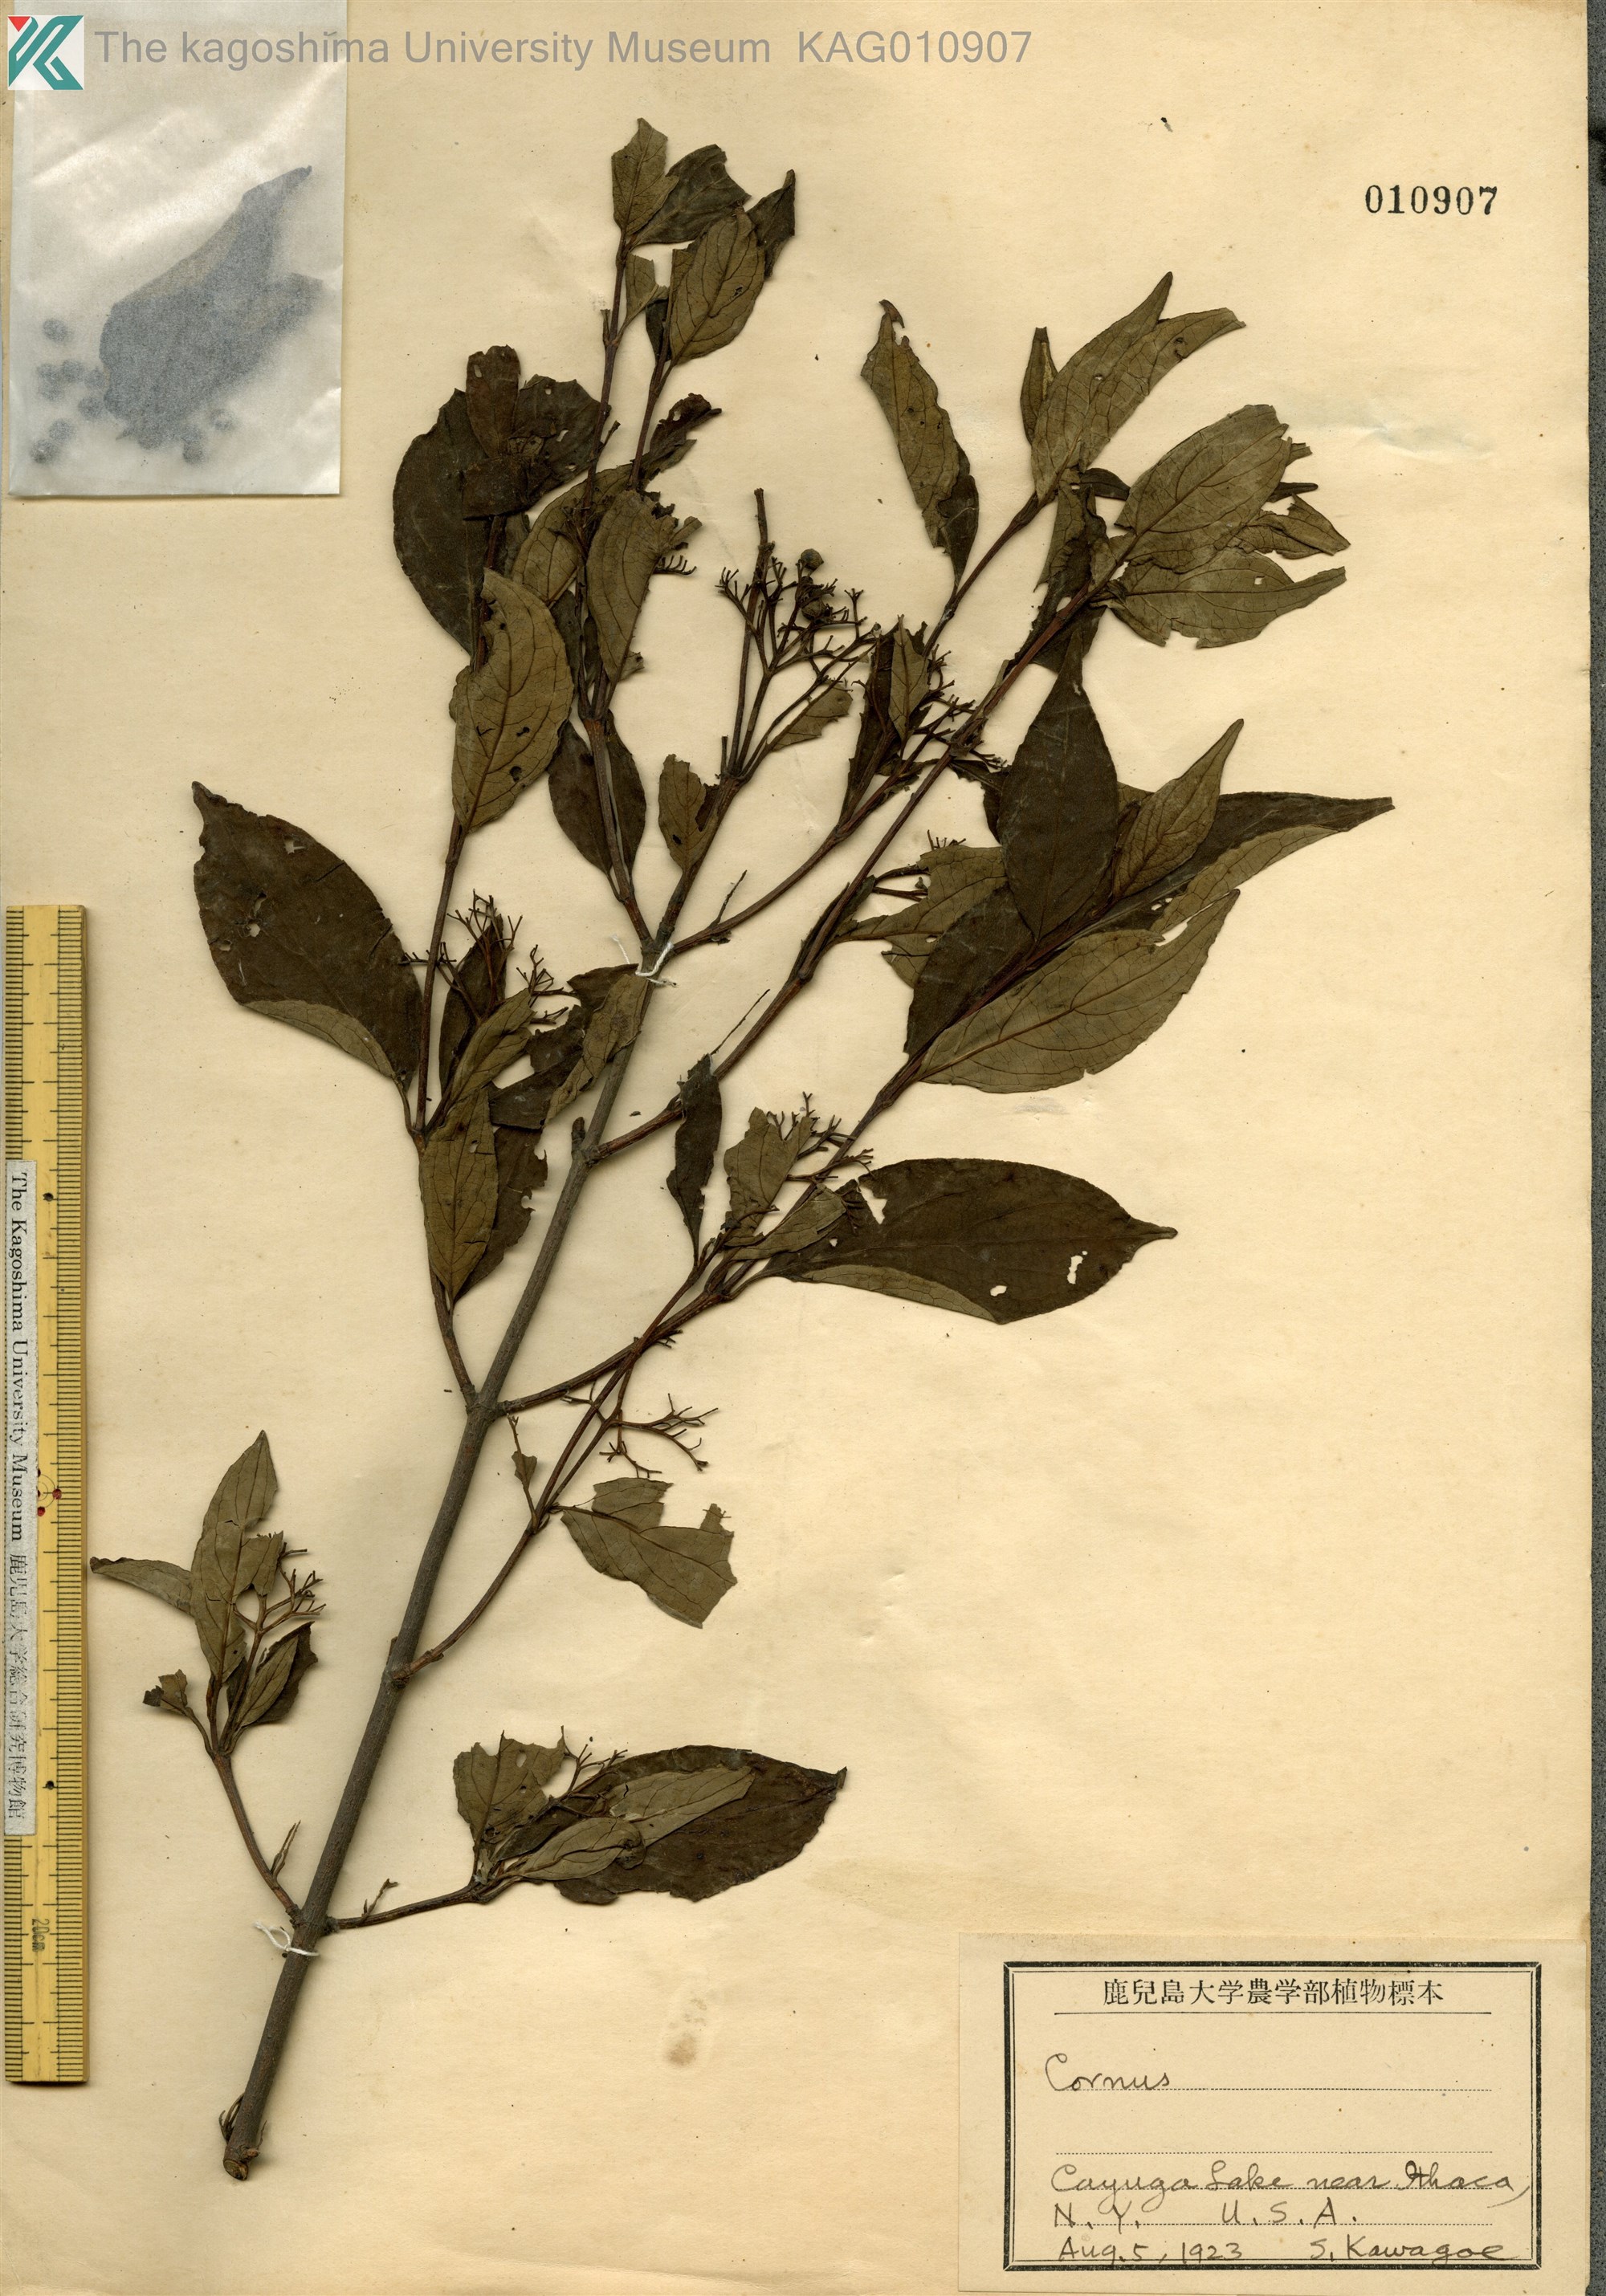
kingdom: Plantae
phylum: Tracheophyta
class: Magnoliopsida
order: Cornales
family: Cornaceae
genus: Cornus
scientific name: Cornus
